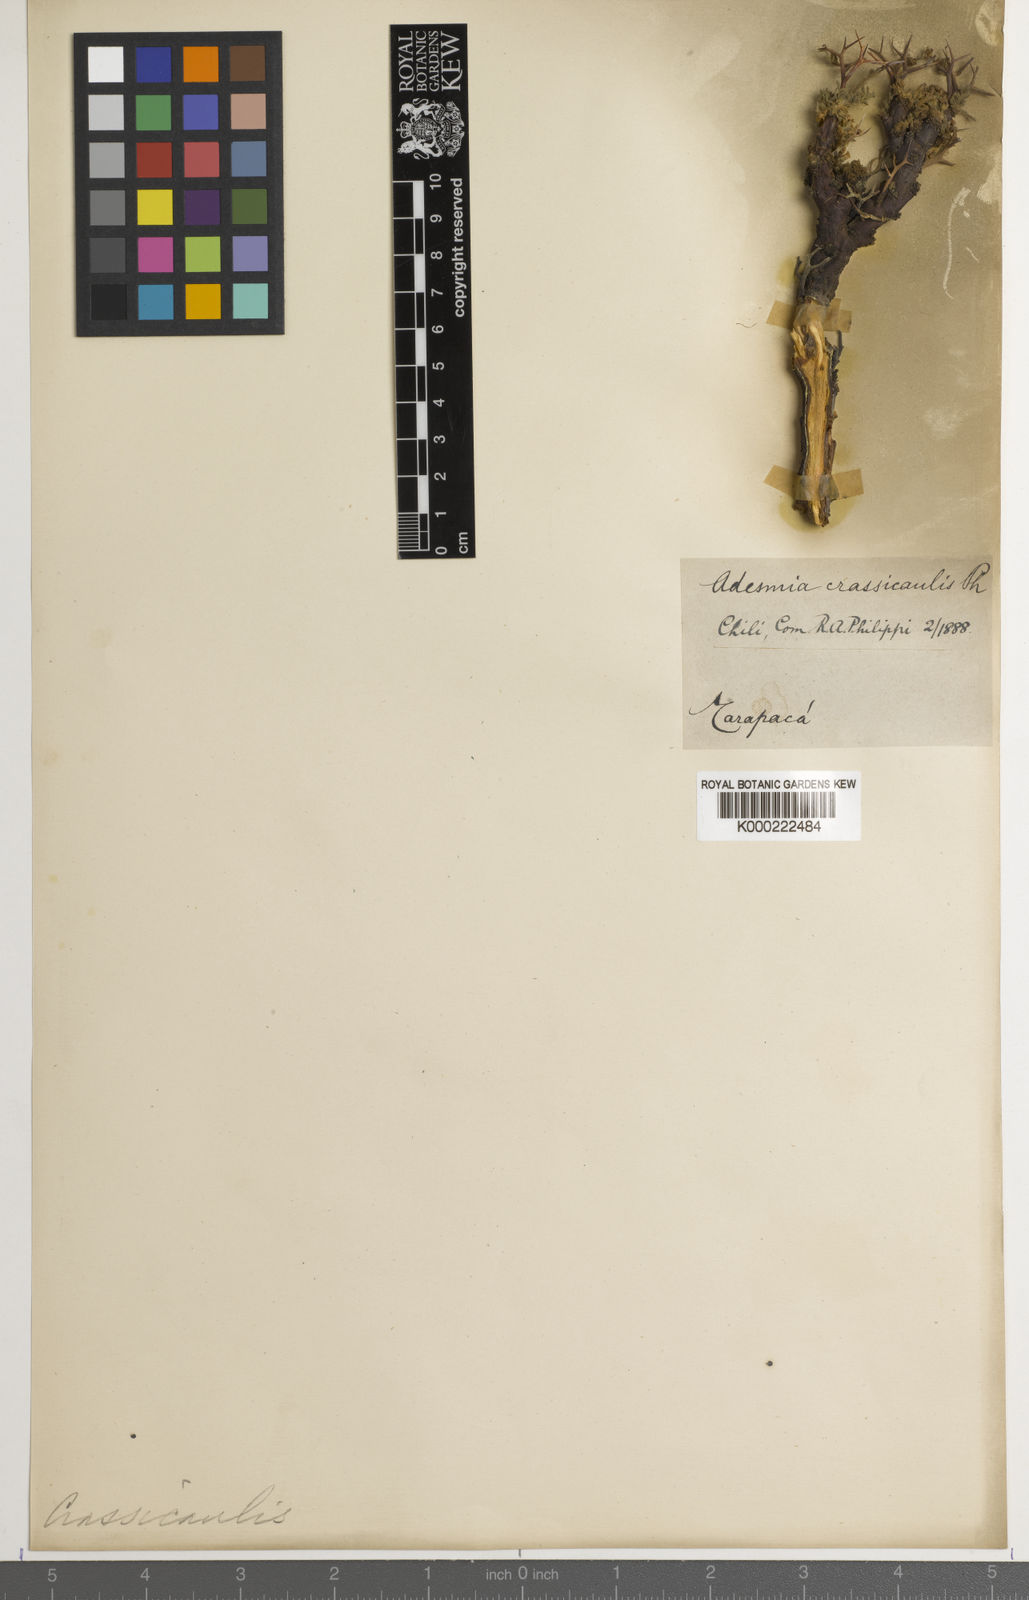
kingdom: Plantae
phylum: Tracheophyta
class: Magnoliopsida
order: Fabales
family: Fabaceae
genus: Adesmia
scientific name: Adesmia crassicaulis
